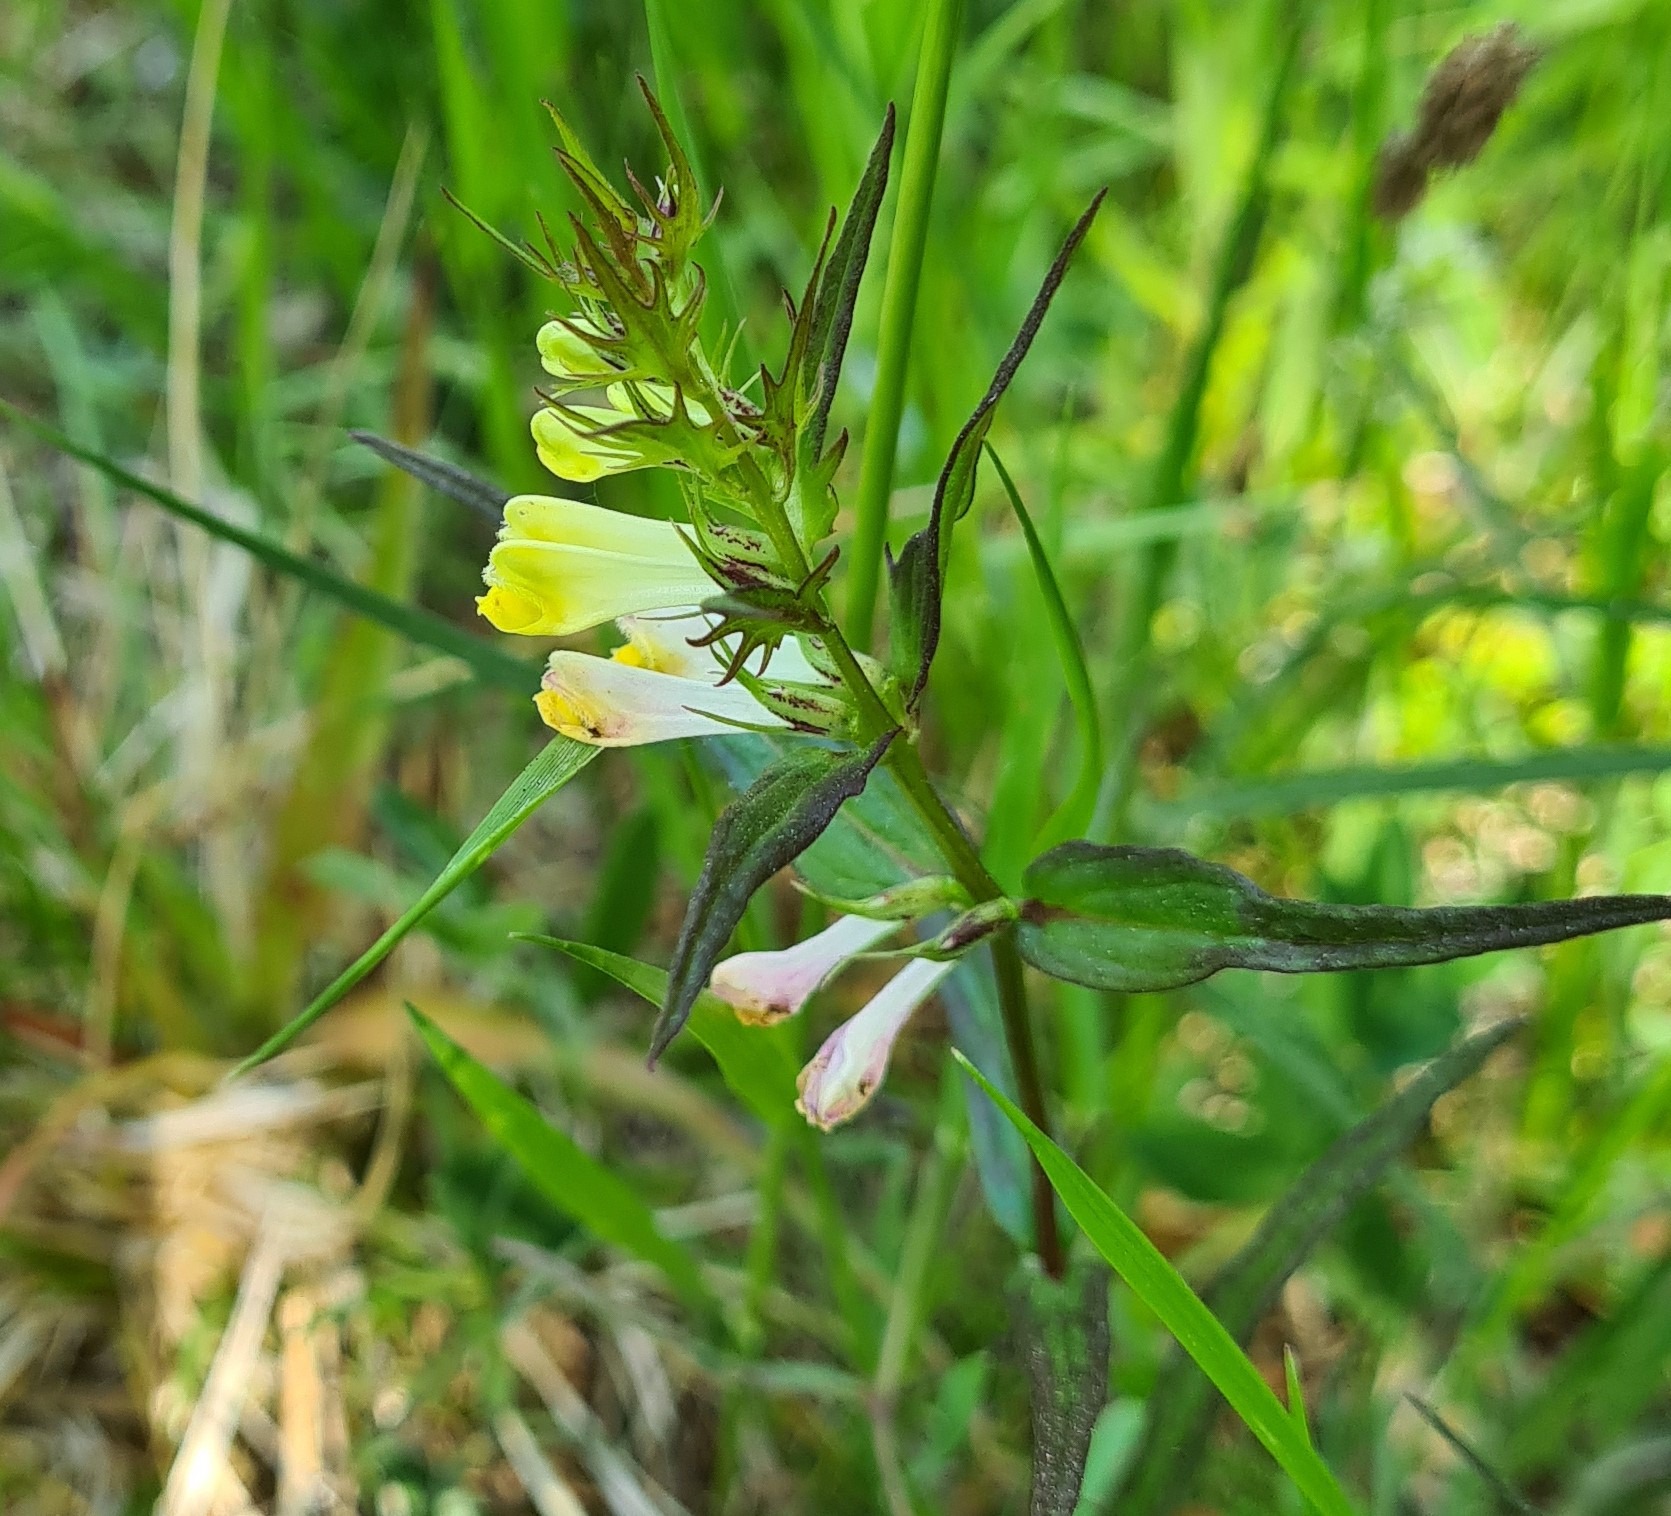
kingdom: Plantae
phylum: Tracheophyta
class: Magnoliopsida
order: Lamiales
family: Orobanchaceae
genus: Melampyrum
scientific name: Melampyrum pratense
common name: Almindelig kohvede
